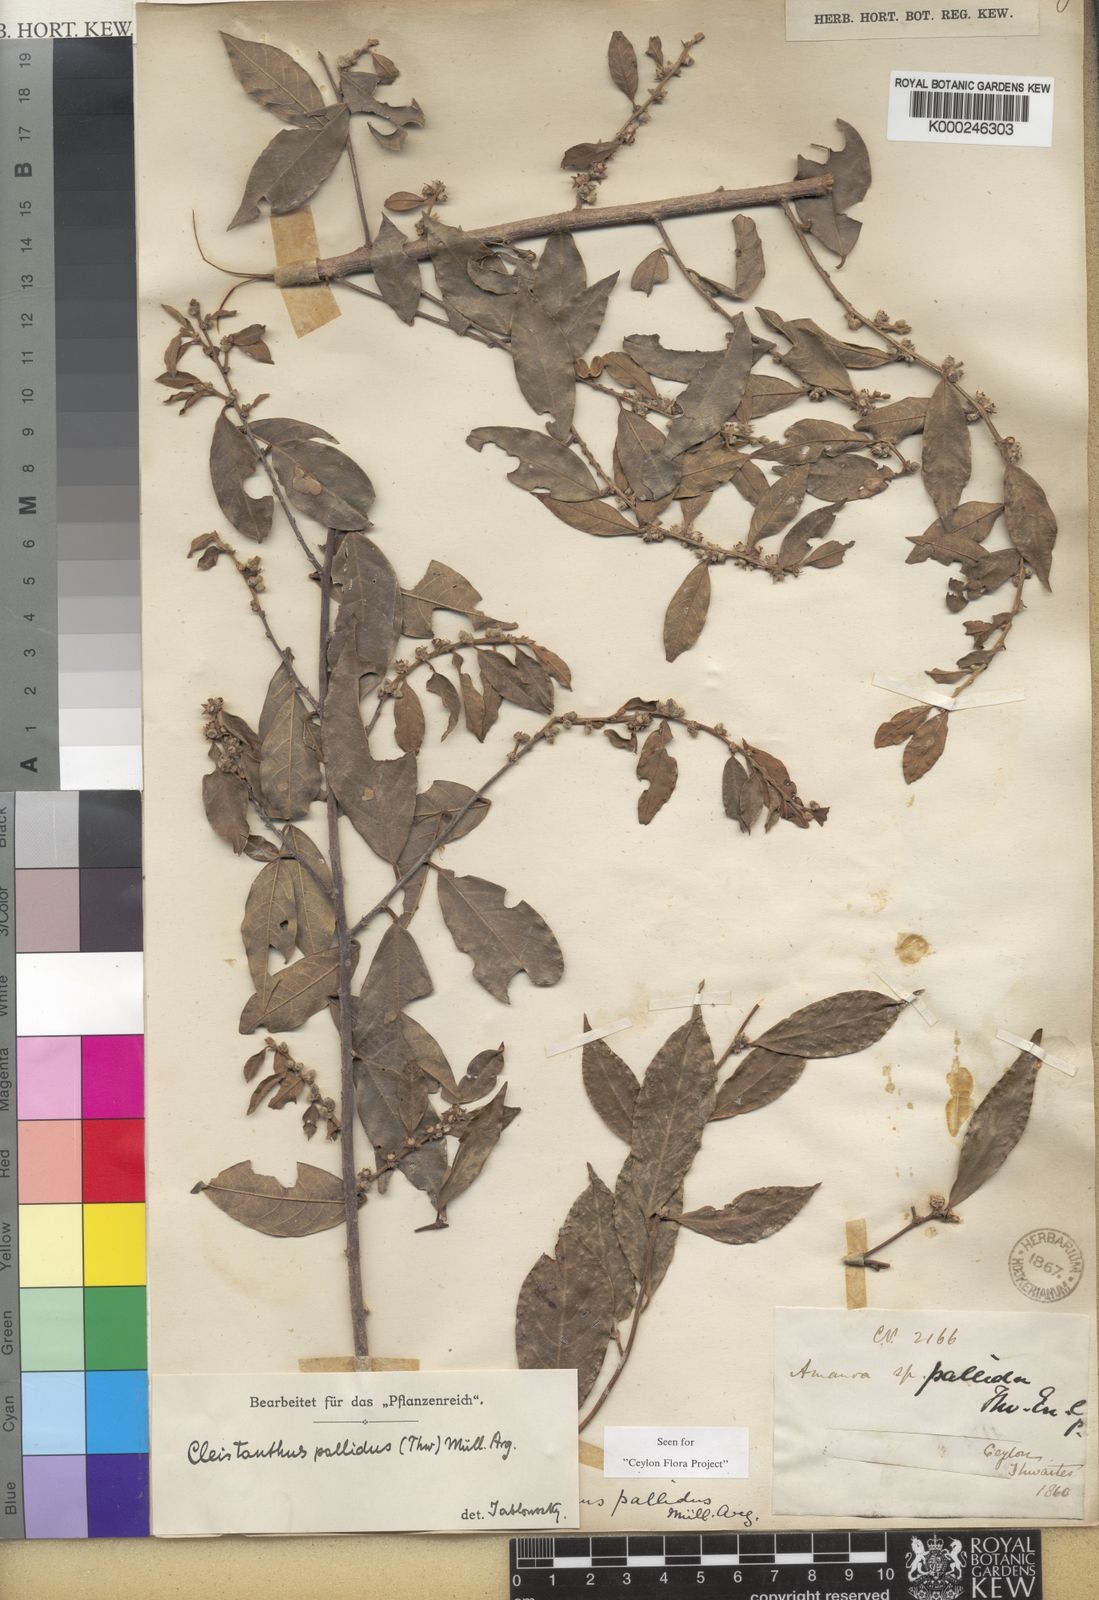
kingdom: Plantae
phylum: Tracheophyta
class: Magnoliopsida
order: Malpighiales
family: Phyllanthaceae
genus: Cleistanthus
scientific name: Cleistanthus
